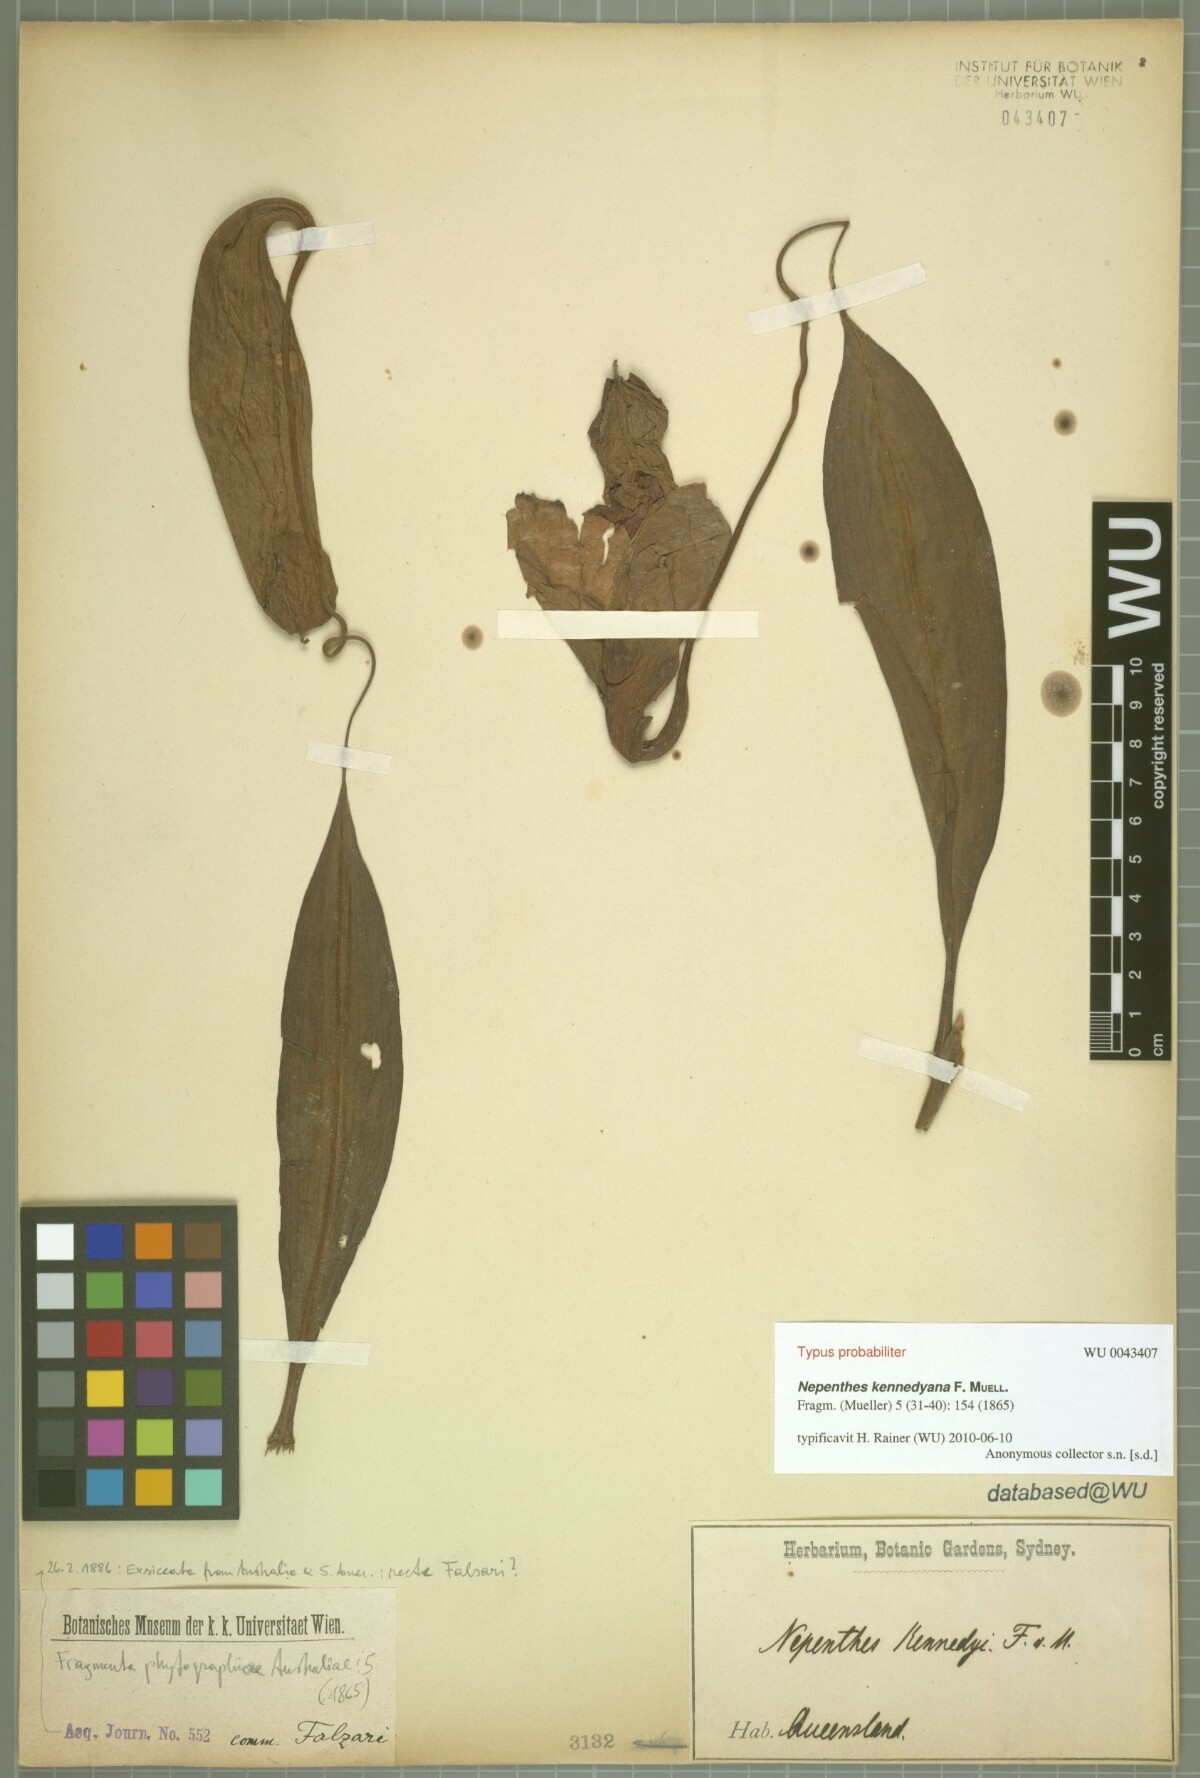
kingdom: Plantae
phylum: Tracheophyta
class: Magnoliopsida
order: Caryophyllales
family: Nepenthaceae
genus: Nepenthes
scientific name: Nepenthes mirabilis
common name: Tropical pitcherplant
